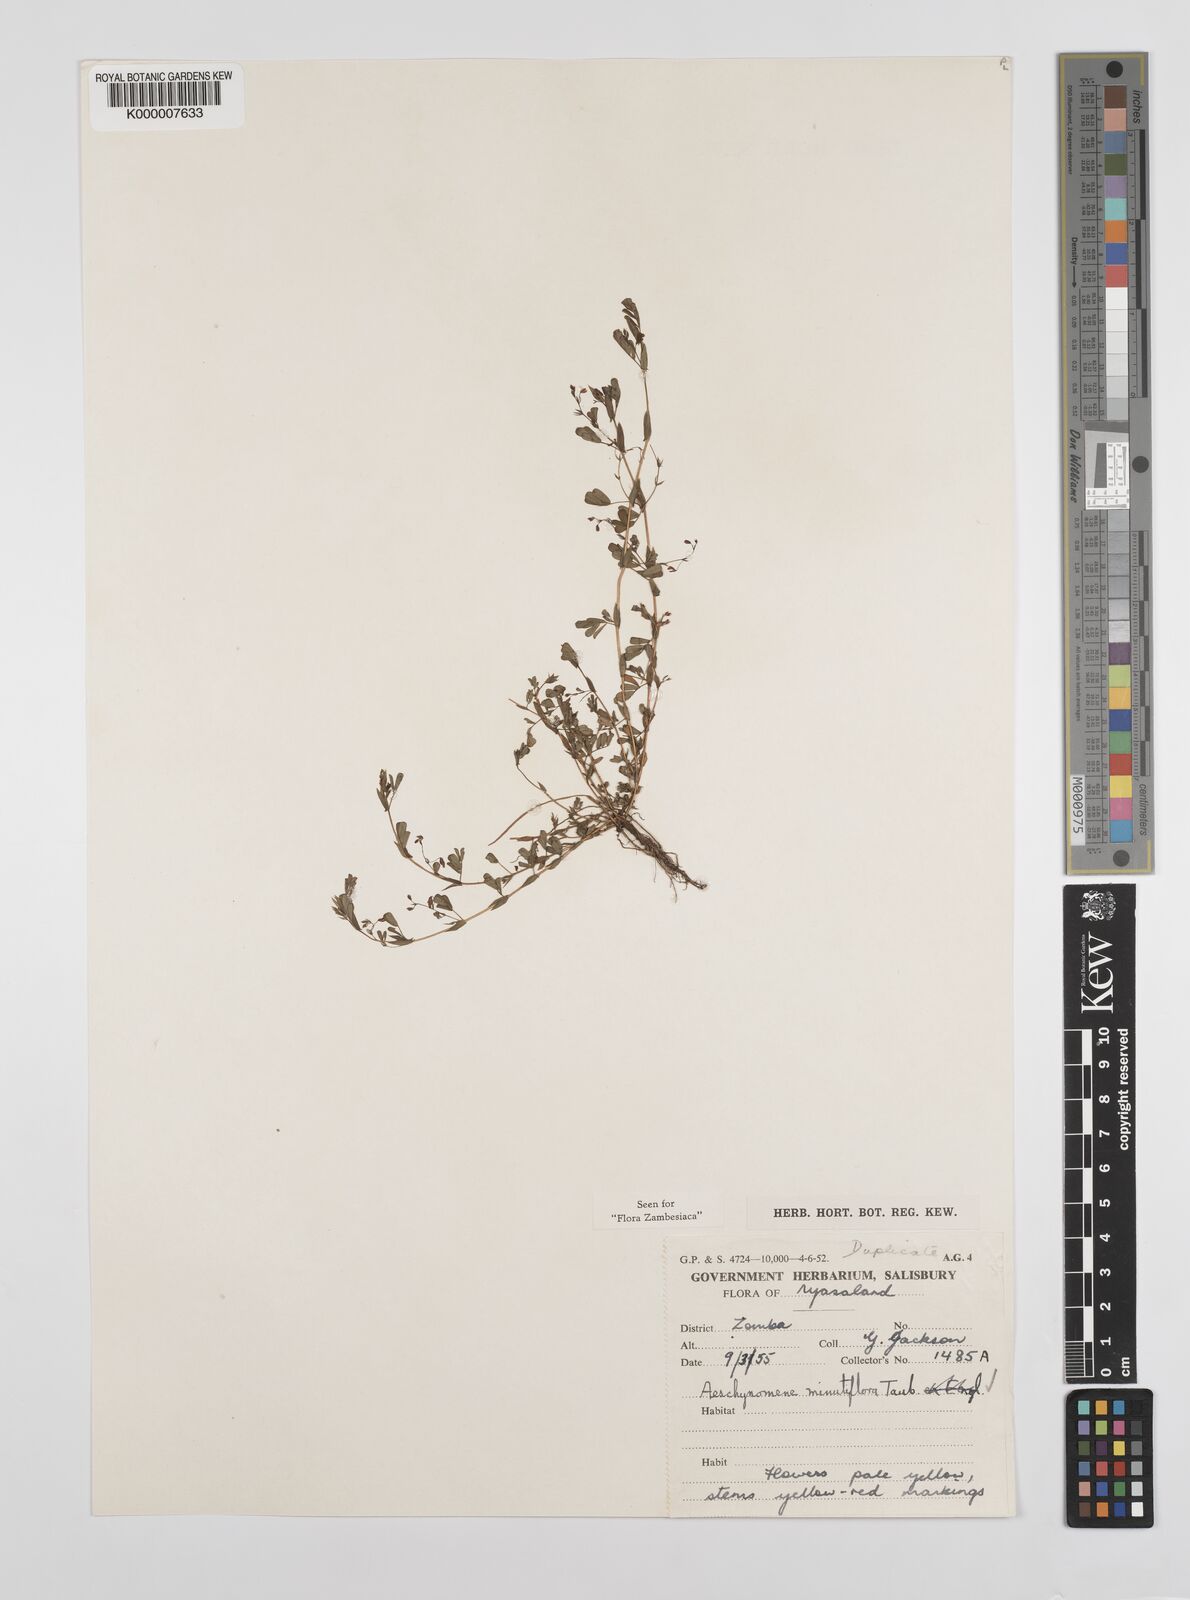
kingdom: Plantae
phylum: Tracheophyta
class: Magnoliopsida
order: Fabales
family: Fabaceae
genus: Aeschynomene
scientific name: Aeschynomene minutiflora
